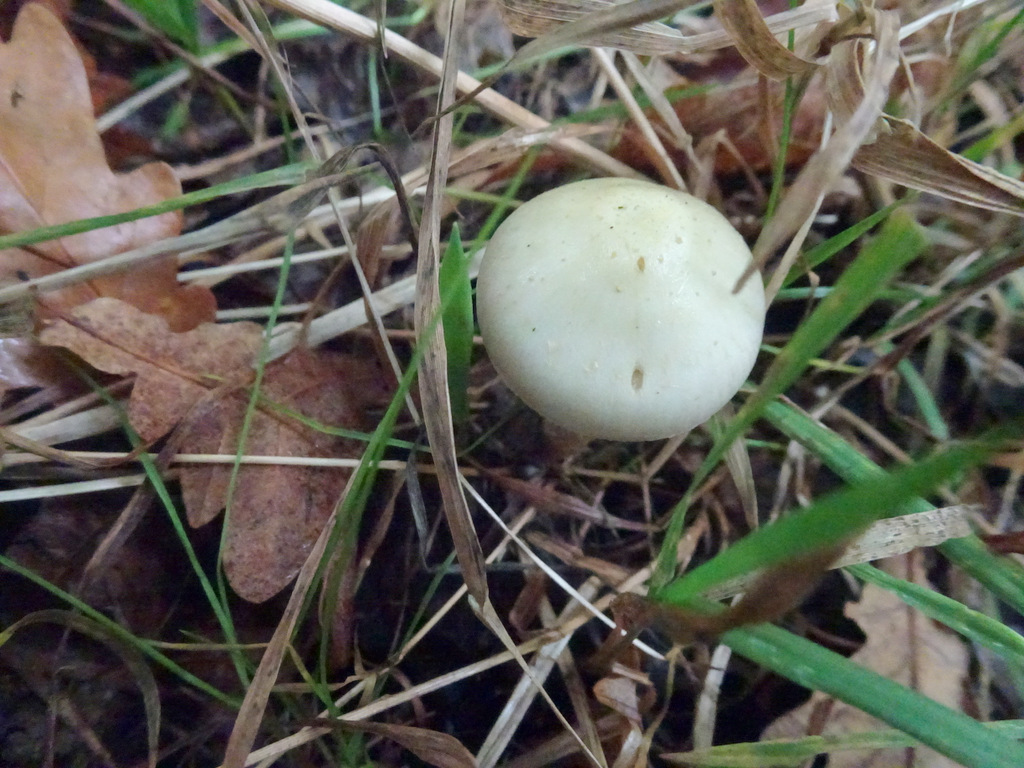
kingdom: Fungi
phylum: Basidiomycota
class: Agaricomycetes
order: Agaricales
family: Strophariaceae
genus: Pholiota
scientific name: Pholiota gummosa
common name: grøngul skælhat
